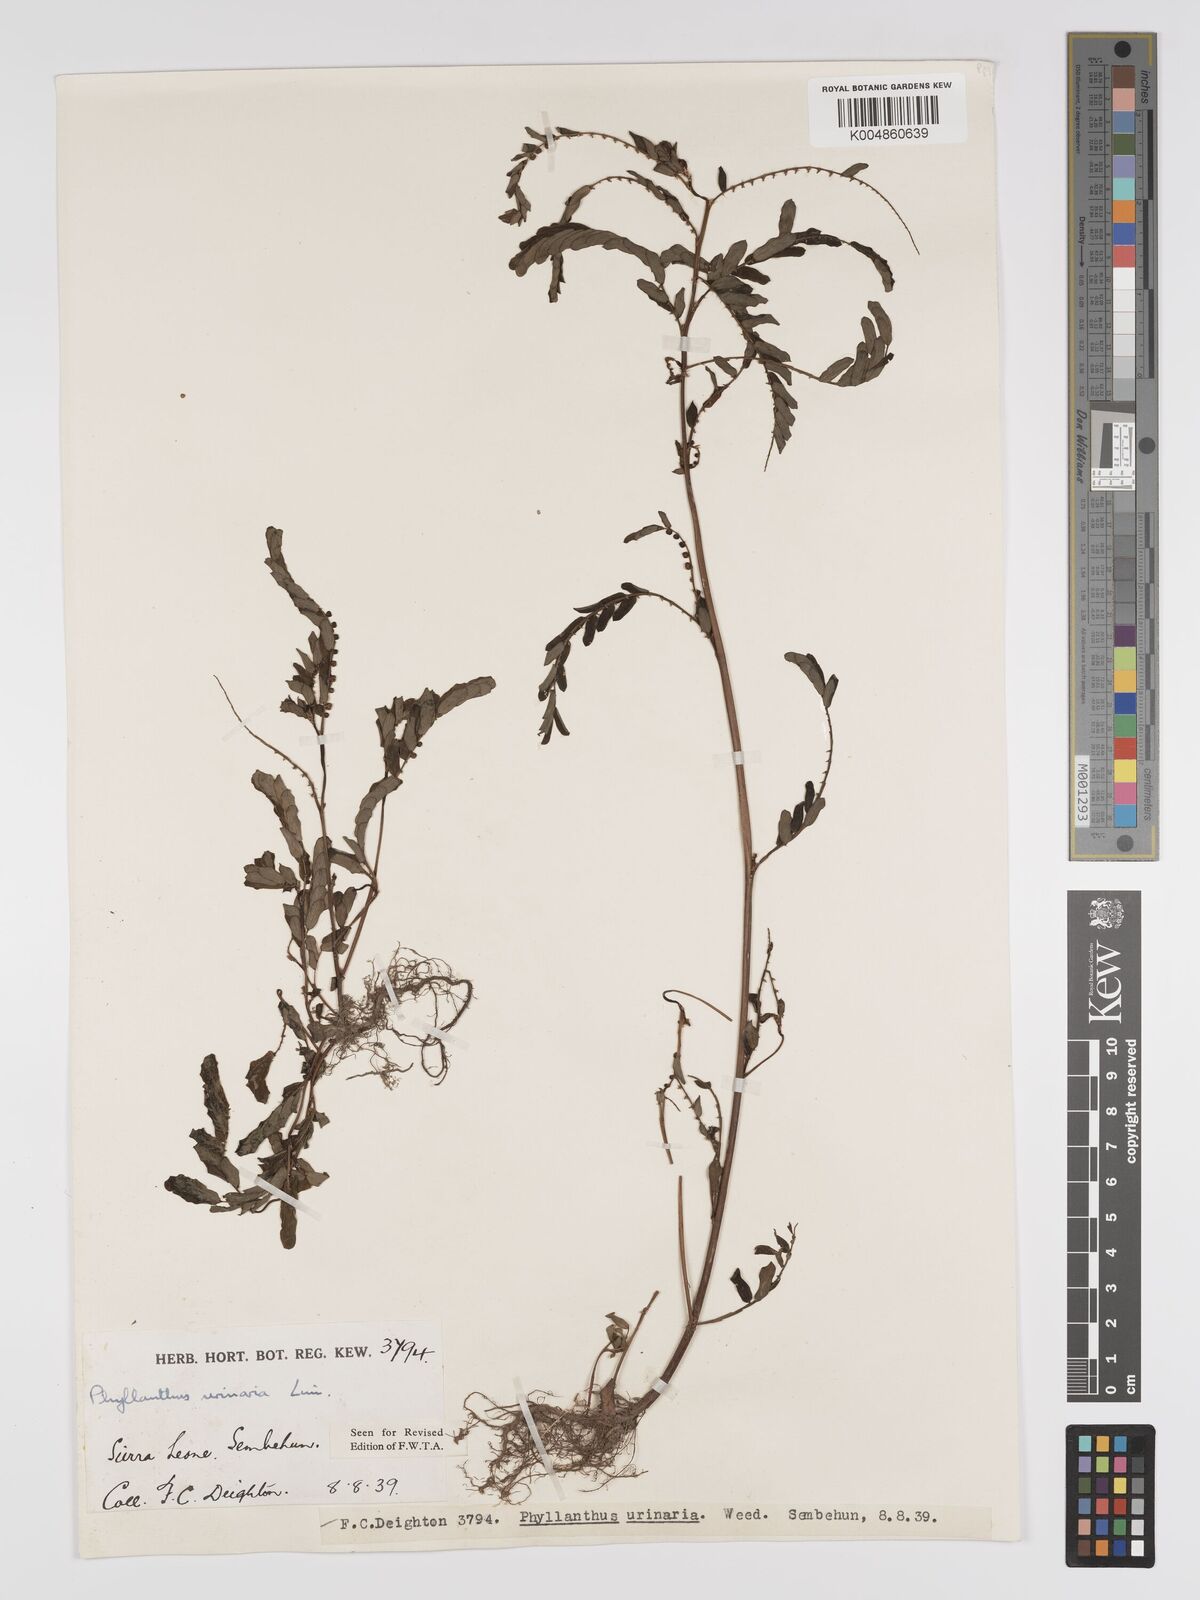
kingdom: Plantae
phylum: Tracheophyta
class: Magnoliopsida
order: Malpighiales
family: Phyllanthaceae
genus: Phyllanthus
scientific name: Phyllanthus urinaria
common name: Chamber bitter
